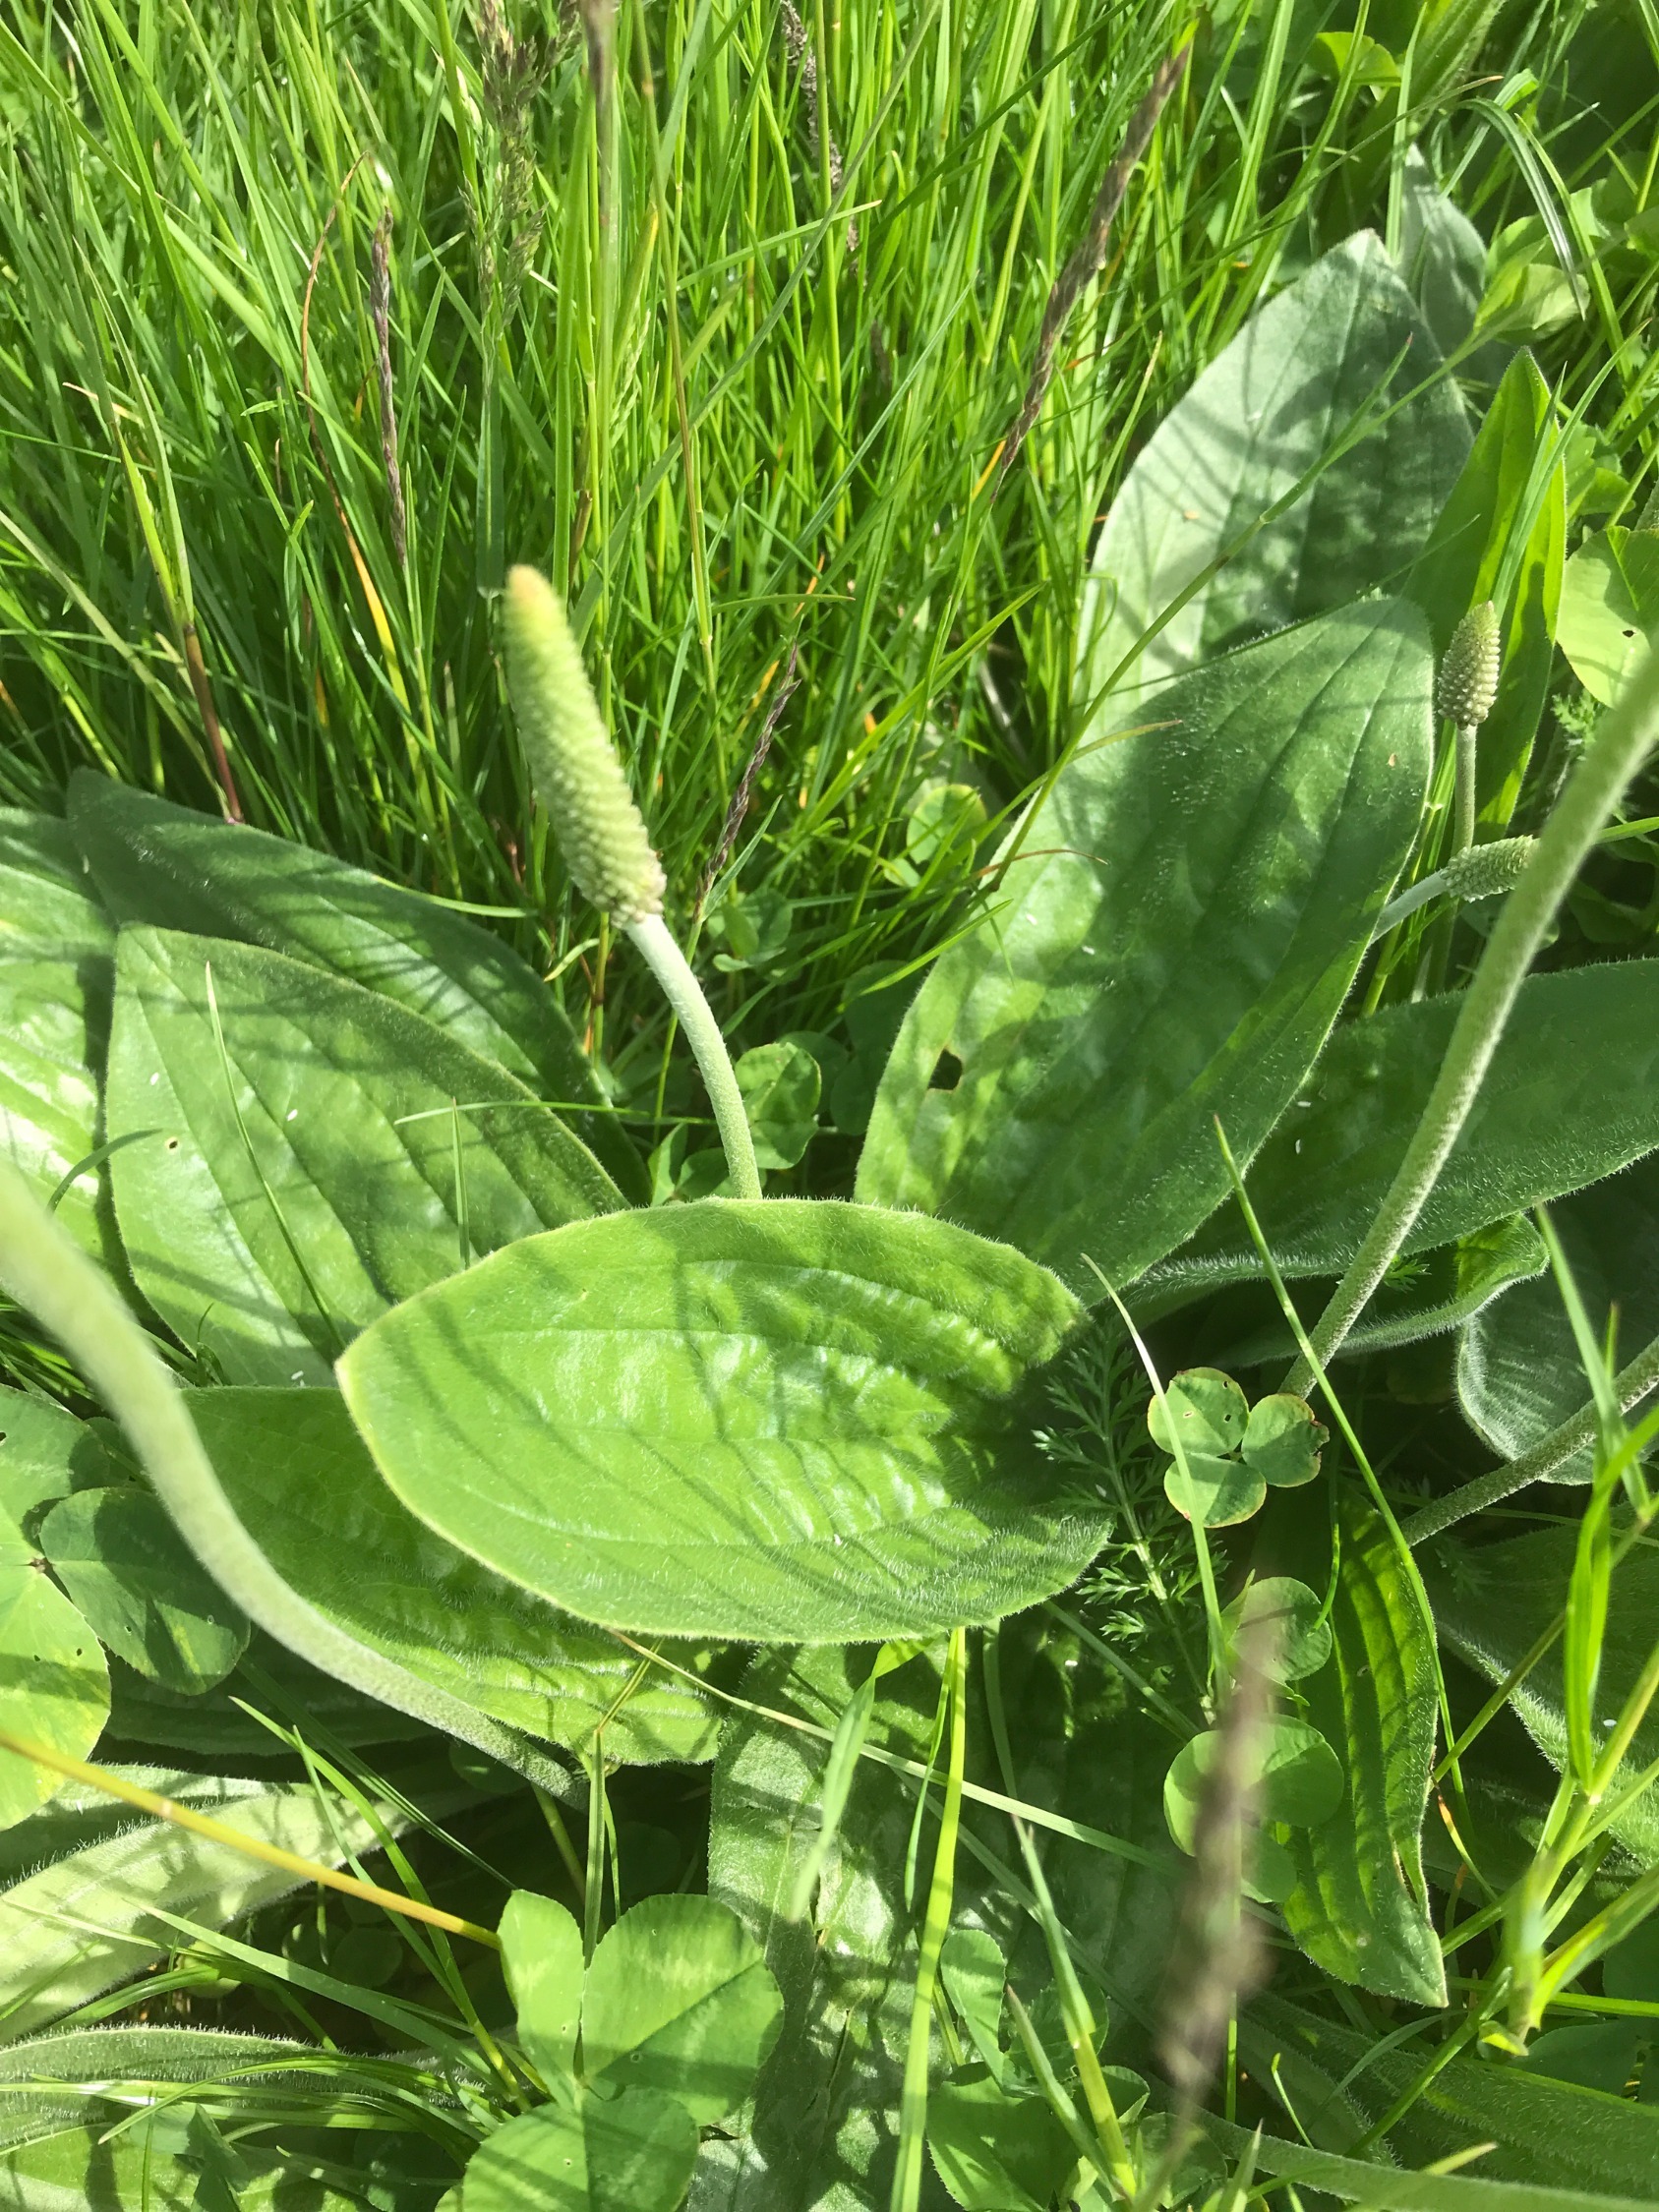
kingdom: Plantae
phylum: Tracheophyta
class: Magnoliopsida
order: Lamiales
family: Plantaginaceae
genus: Plantago
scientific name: Plantago media
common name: Dunet vejbred
